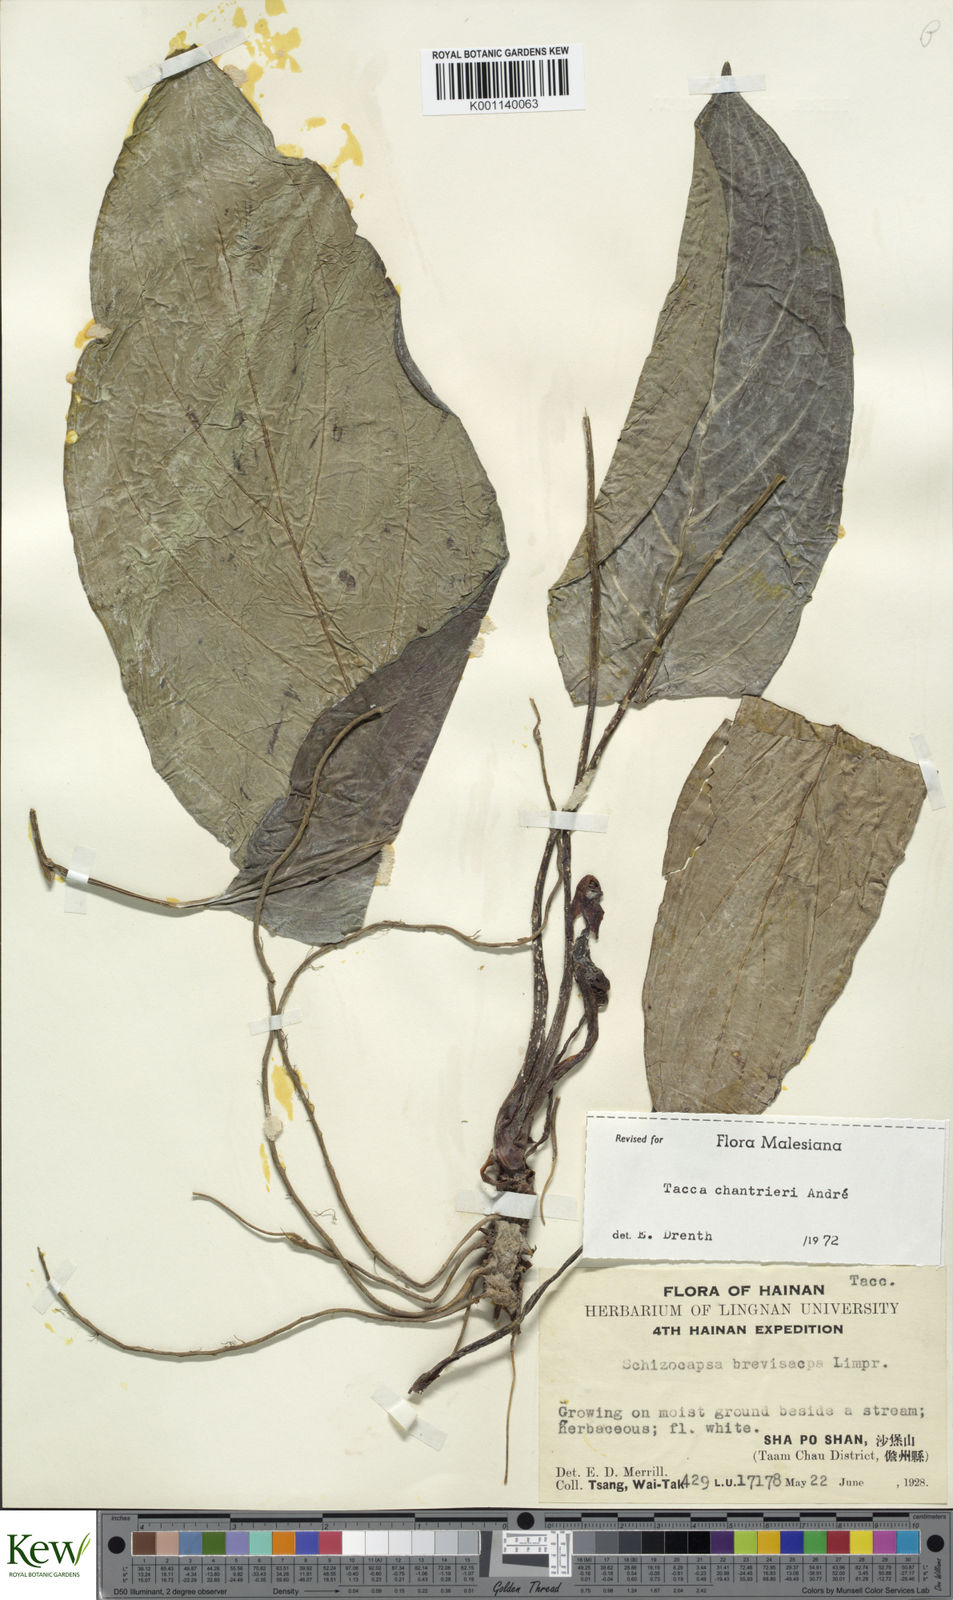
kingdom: Plantae
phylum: Tracheophyta
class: Liliopsida
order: Dioscoreales
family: Dioscoreaceae
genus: Tacca
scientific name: Tacca
